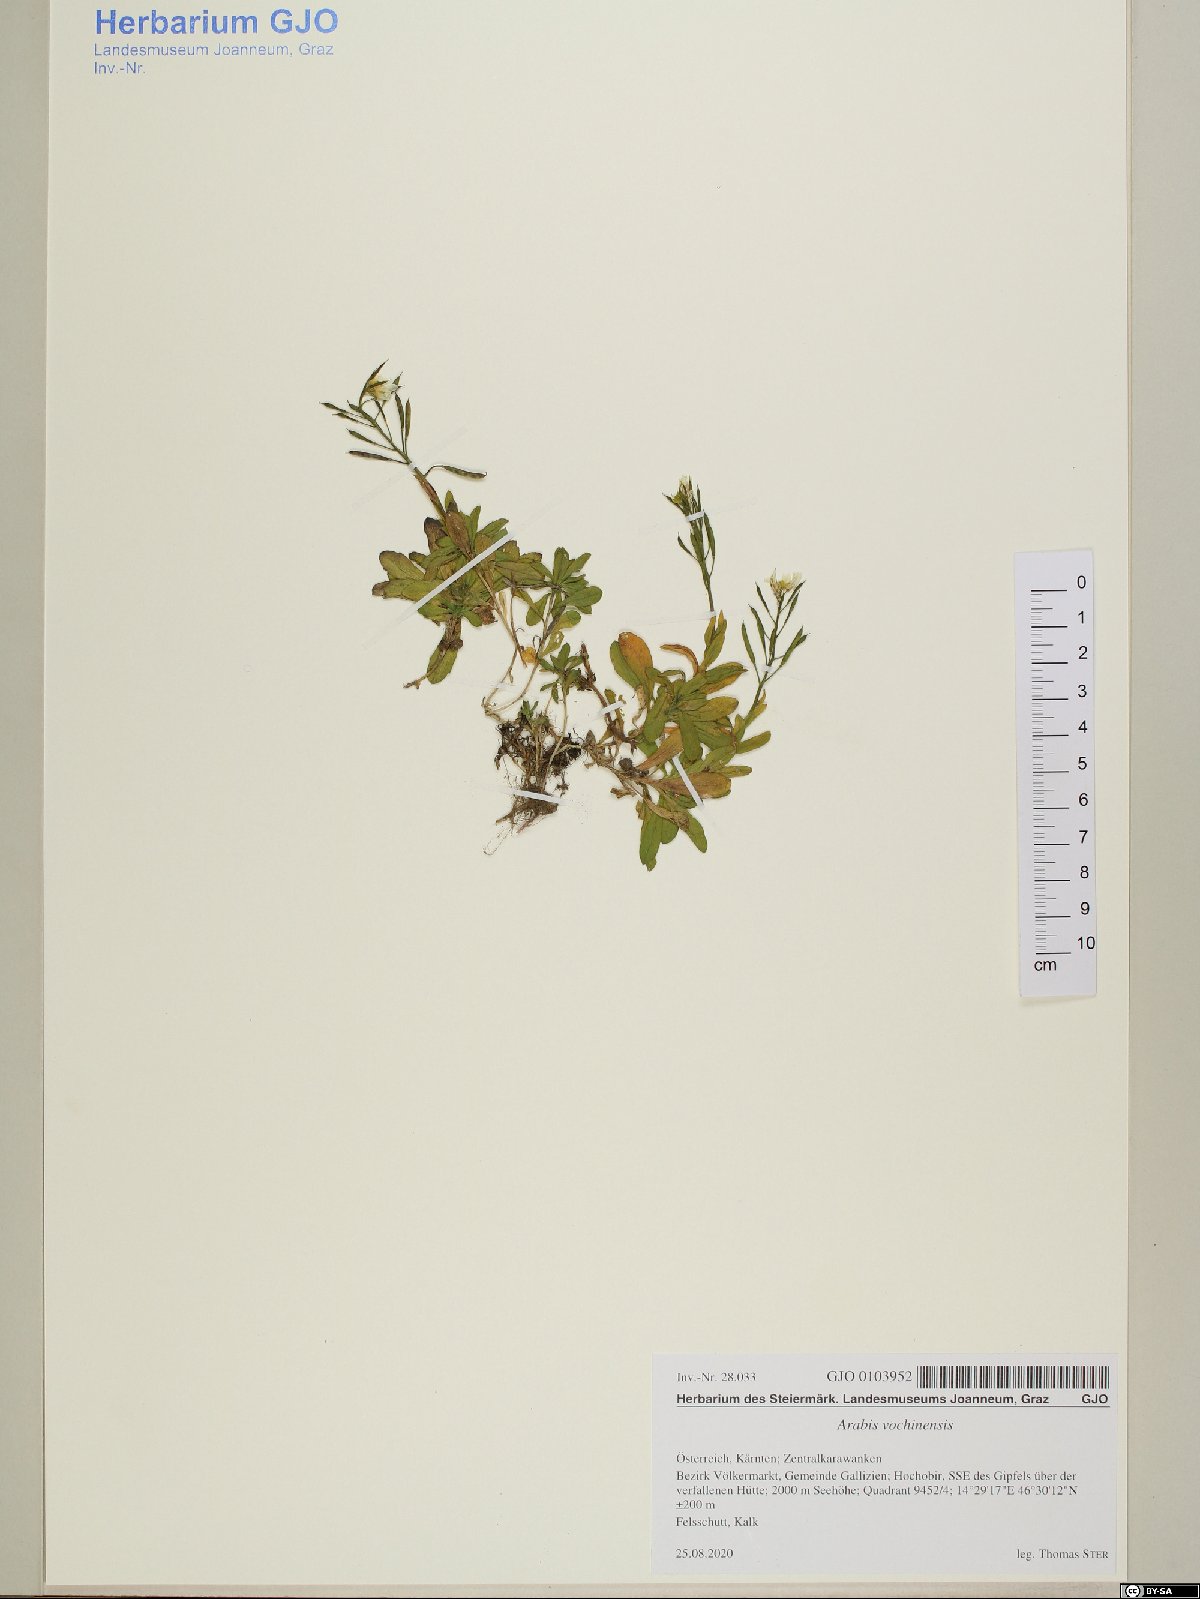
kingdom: Plantae
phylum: Tracheophyta
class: Magnoliopsida
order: Brassicales
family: Brassicaceae
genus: Arabis
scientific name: Arabis vochinensis
